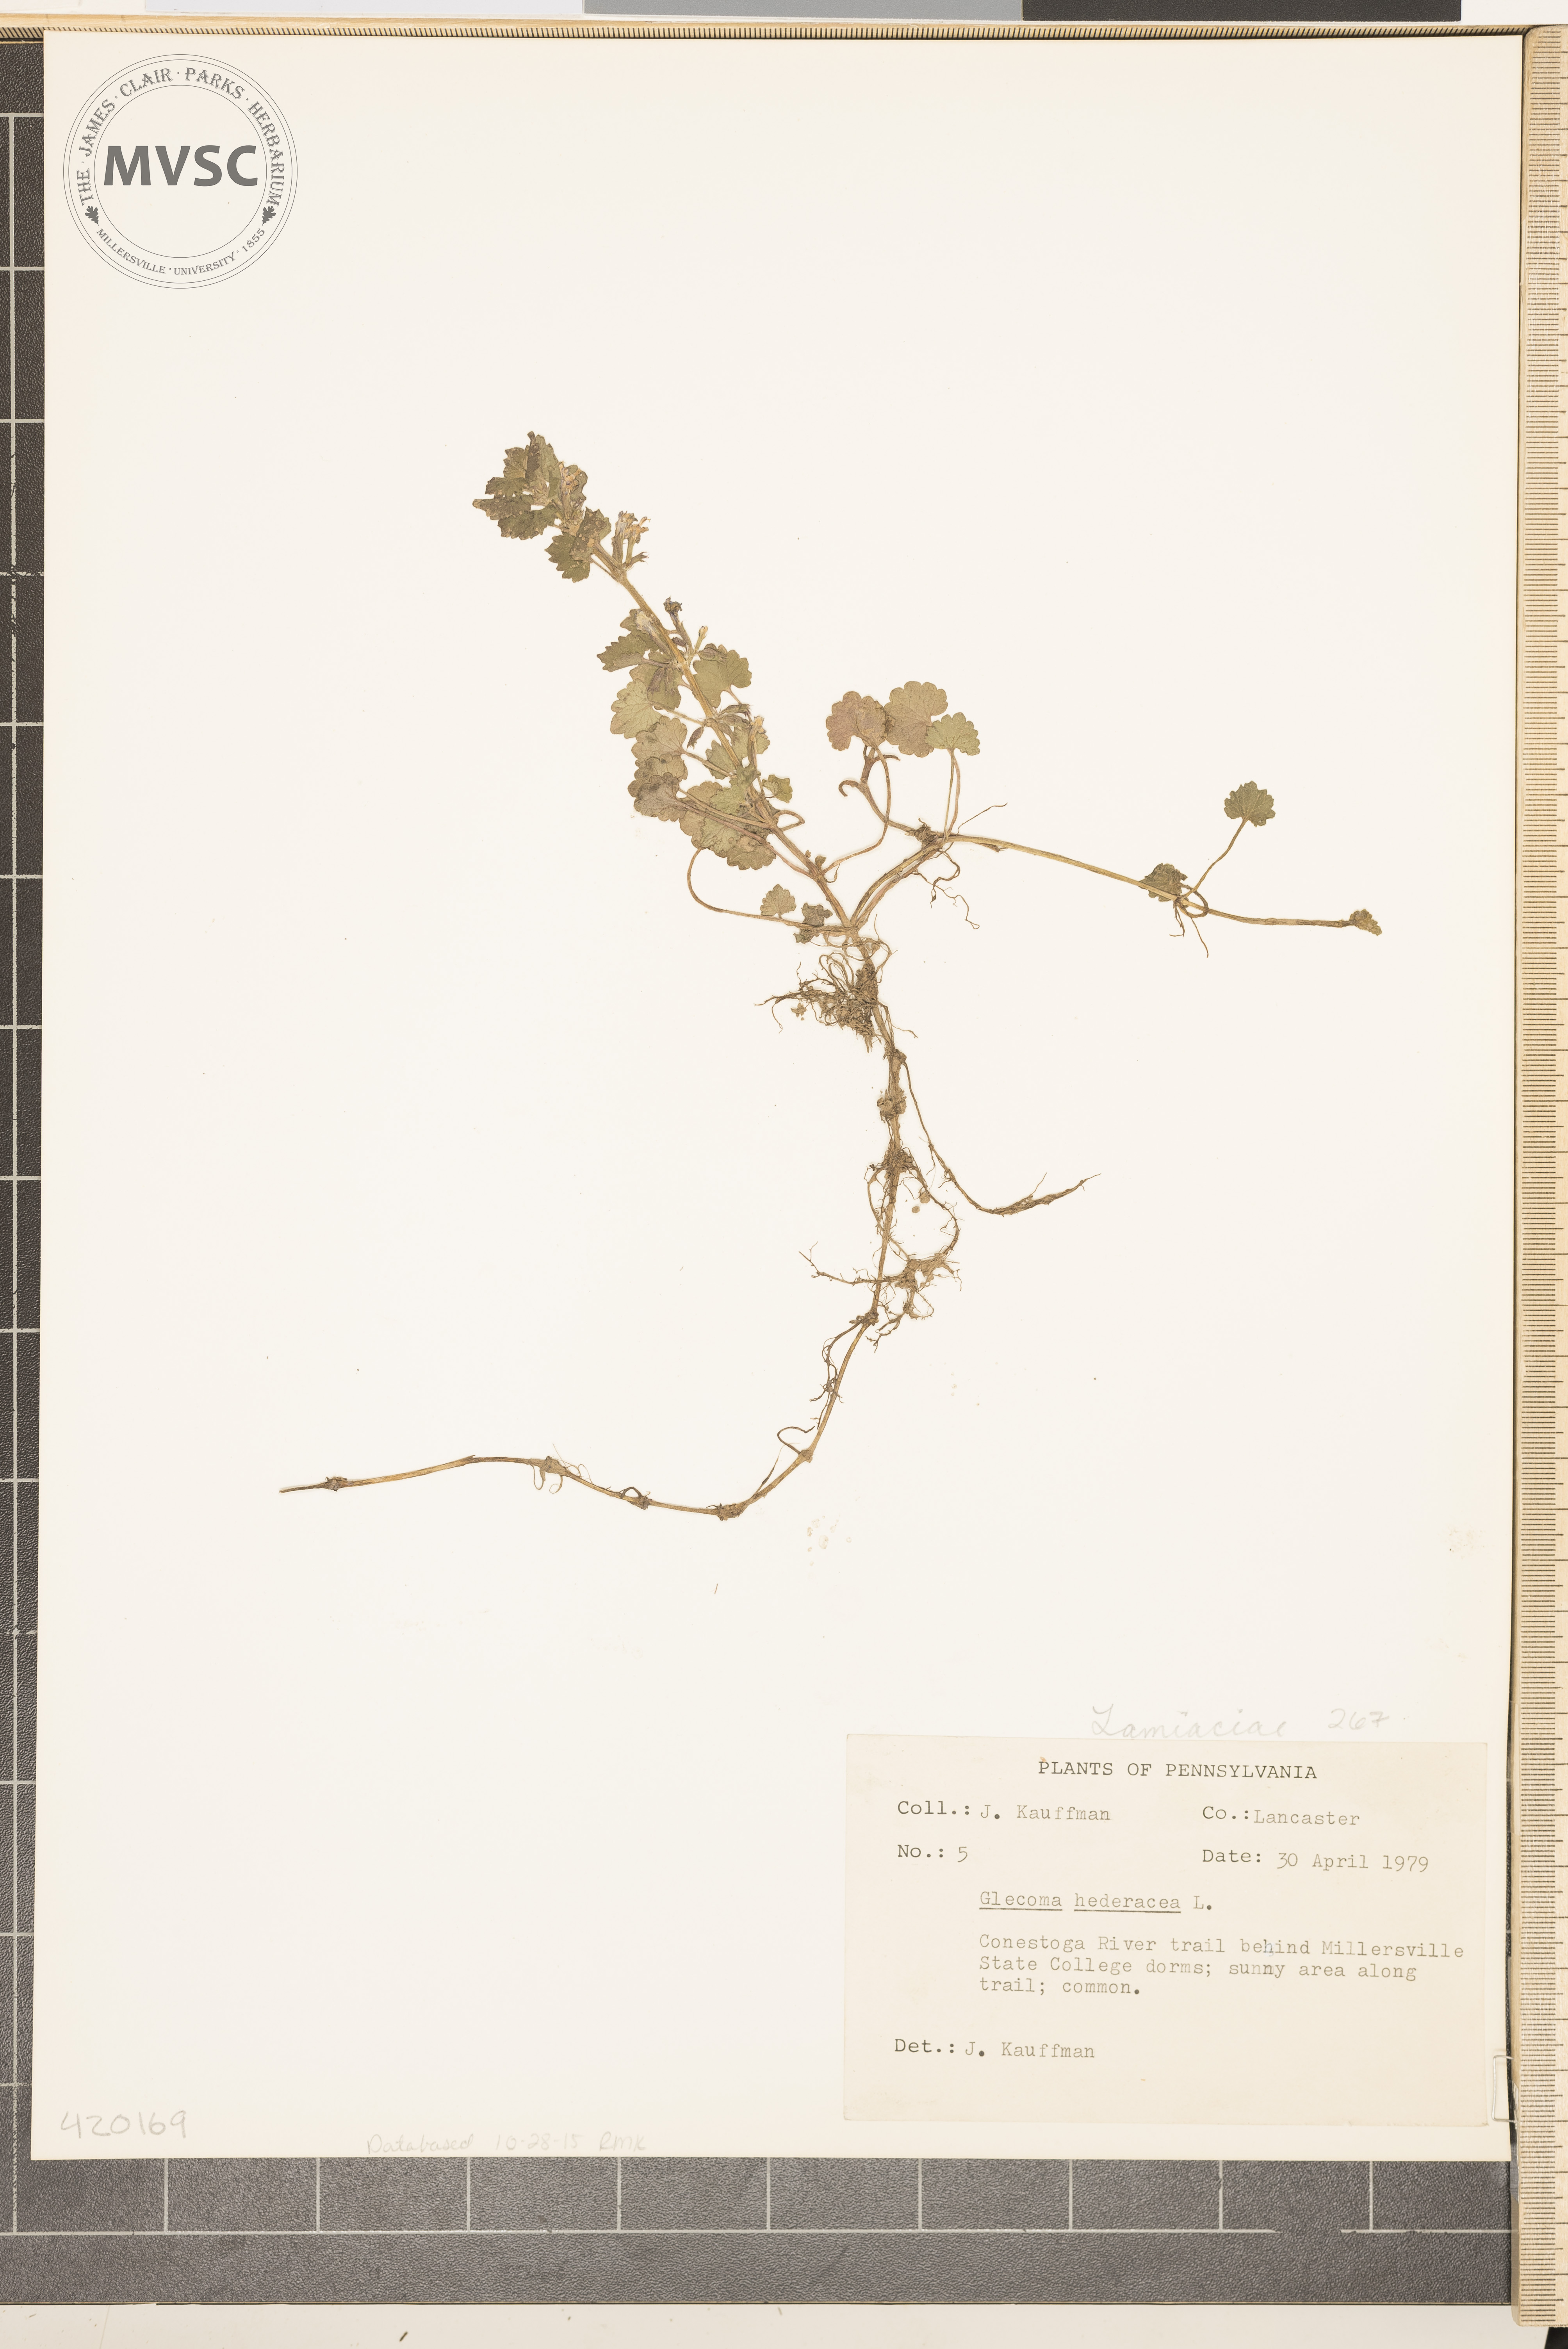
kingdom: Plantae
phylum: Tracheophyta
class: Magnoliopsida
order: Lamiales
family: Lamiaceae
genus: Glechoma
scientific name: Glechoma hederacea
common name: Ground ivy
